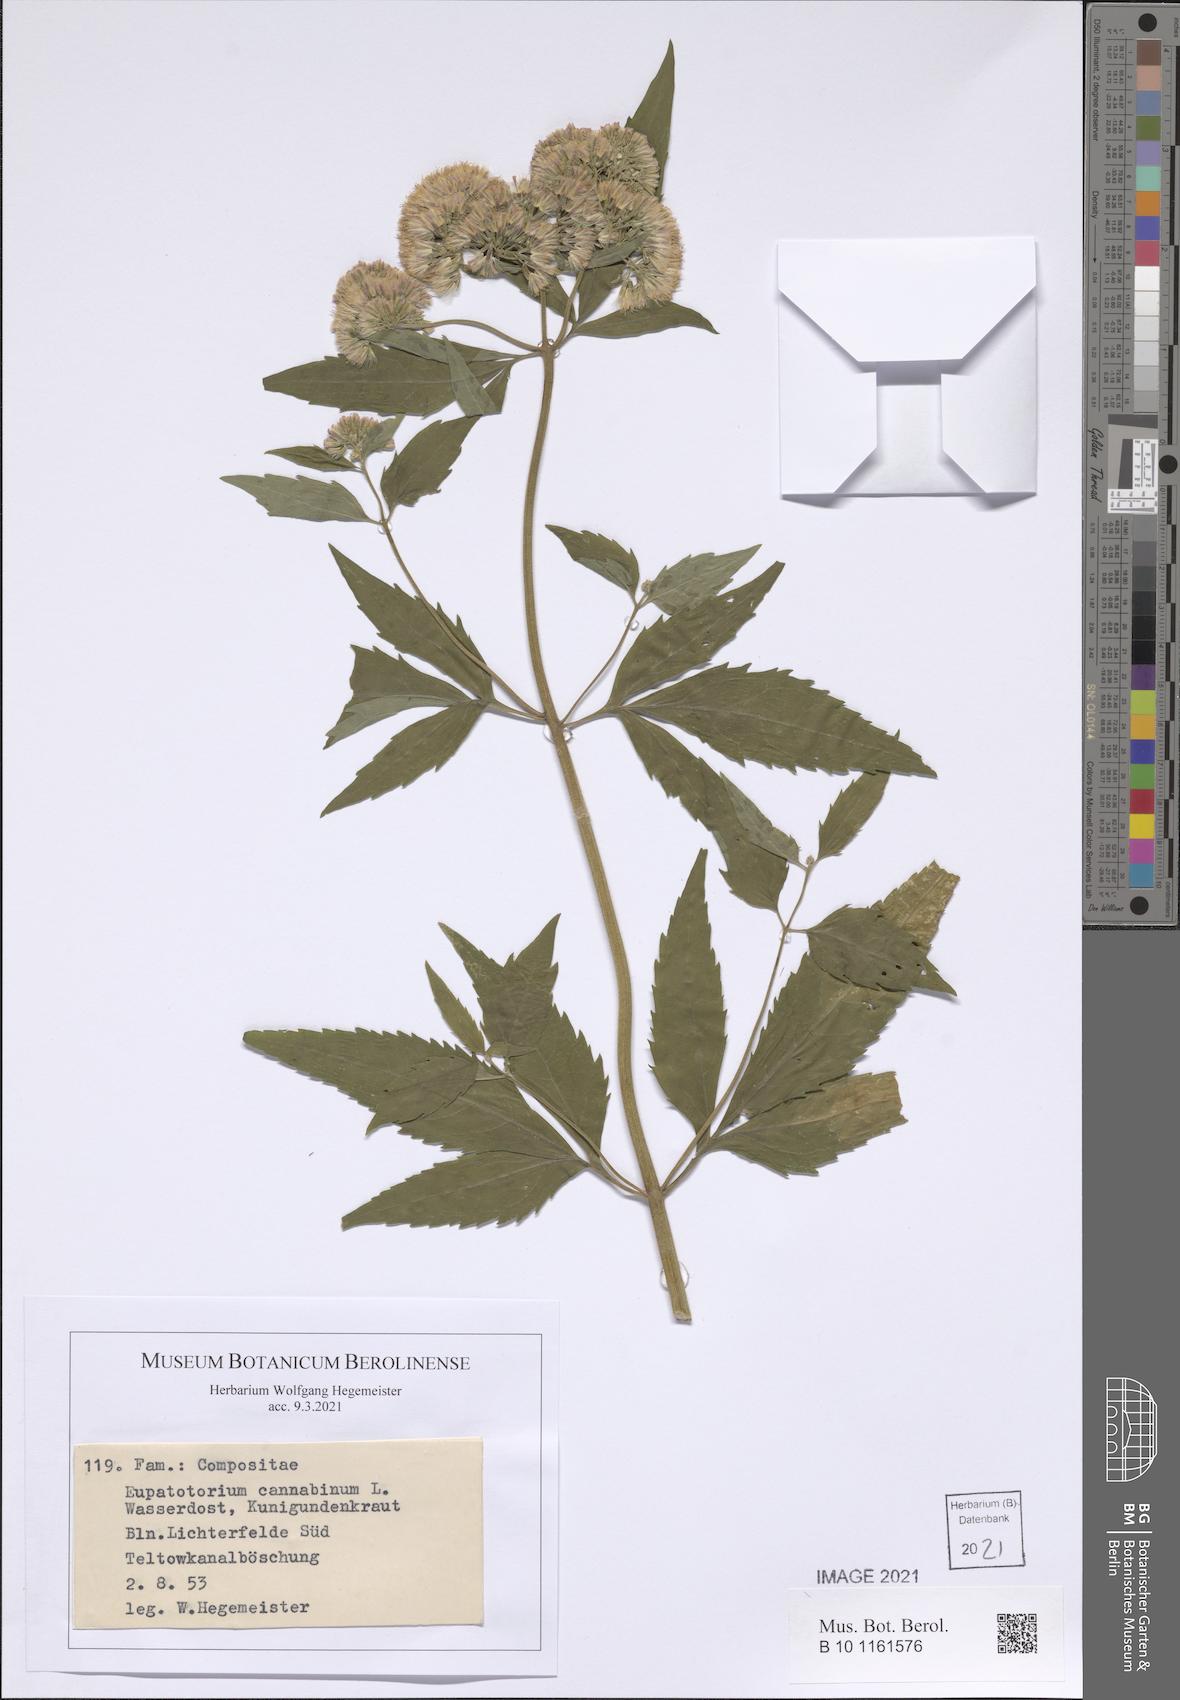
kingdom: Plantae
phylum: Tracheophyta
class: Magnoliopsida
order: Asterales
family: Asteraceae
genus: Eupatorium
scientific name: Eupatorium cannabinum
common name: Hemp-agrimony
